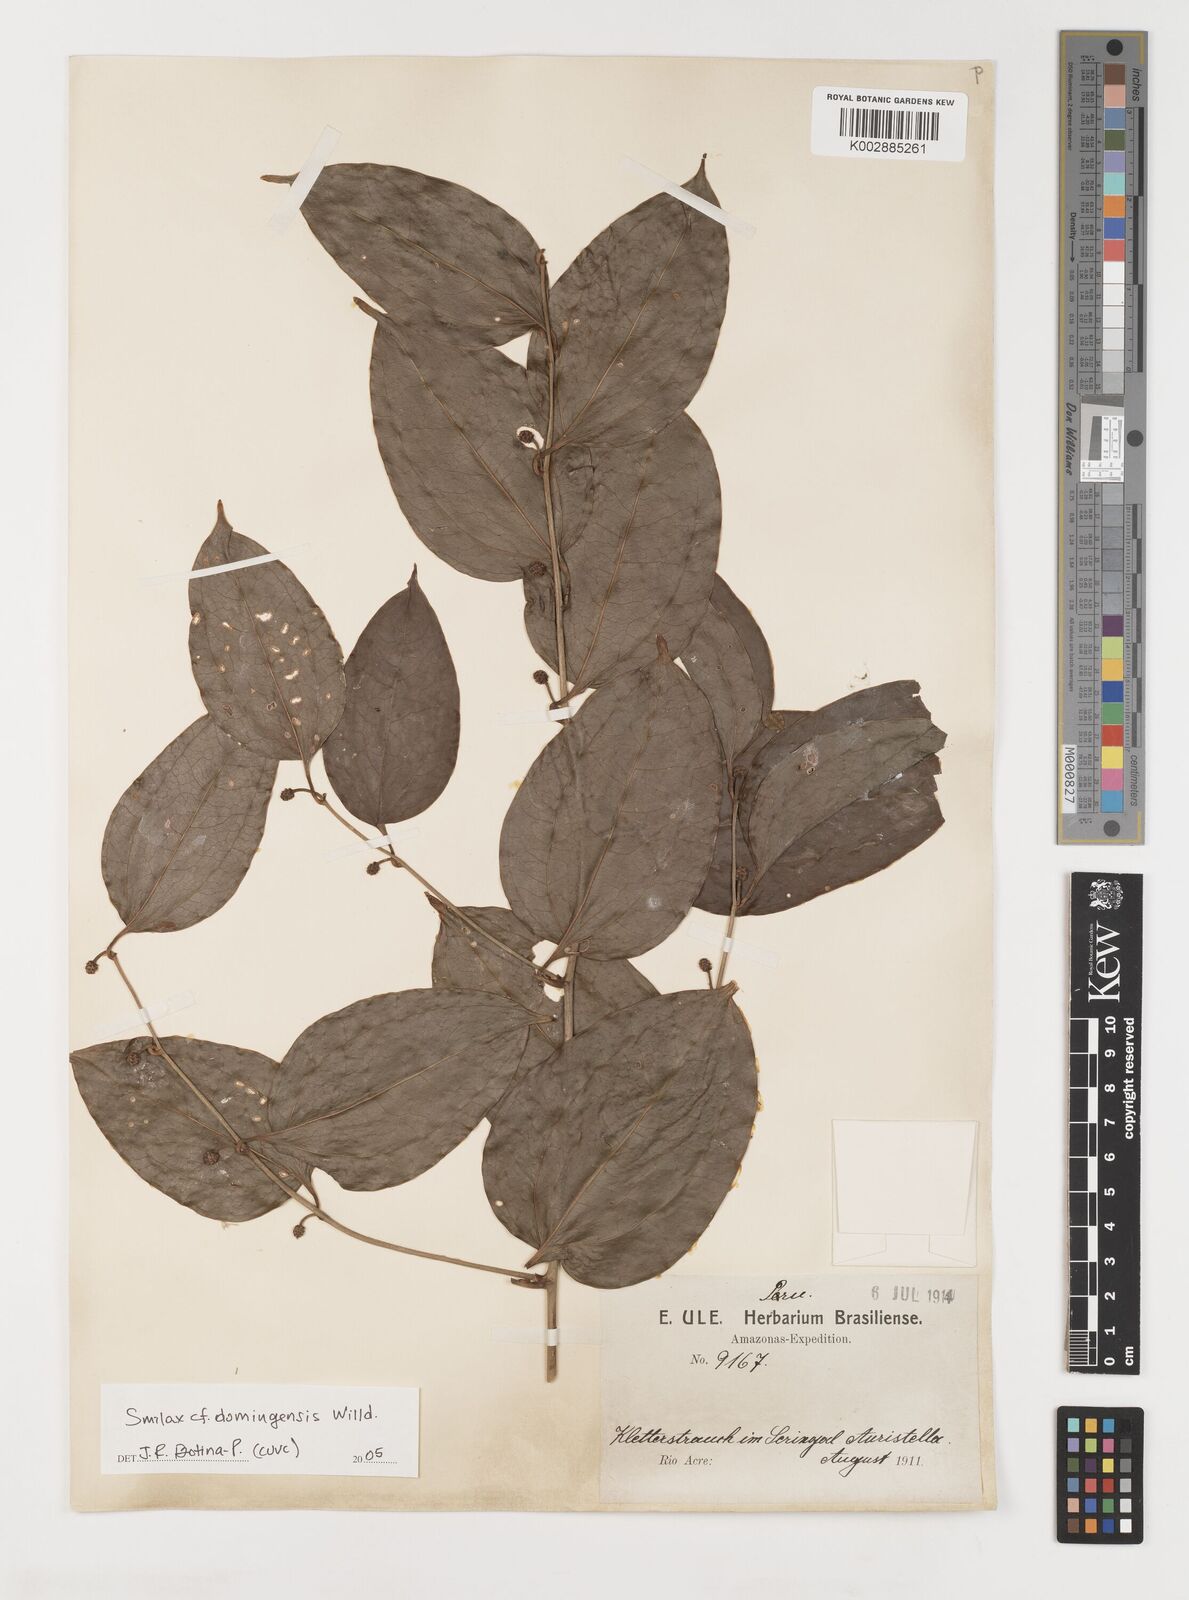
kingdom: Plantae
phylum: Tracheophyta
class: Liliopsida
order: Liliales
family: Smilacaceae
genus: Smilax
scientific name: Smilax domingensis
